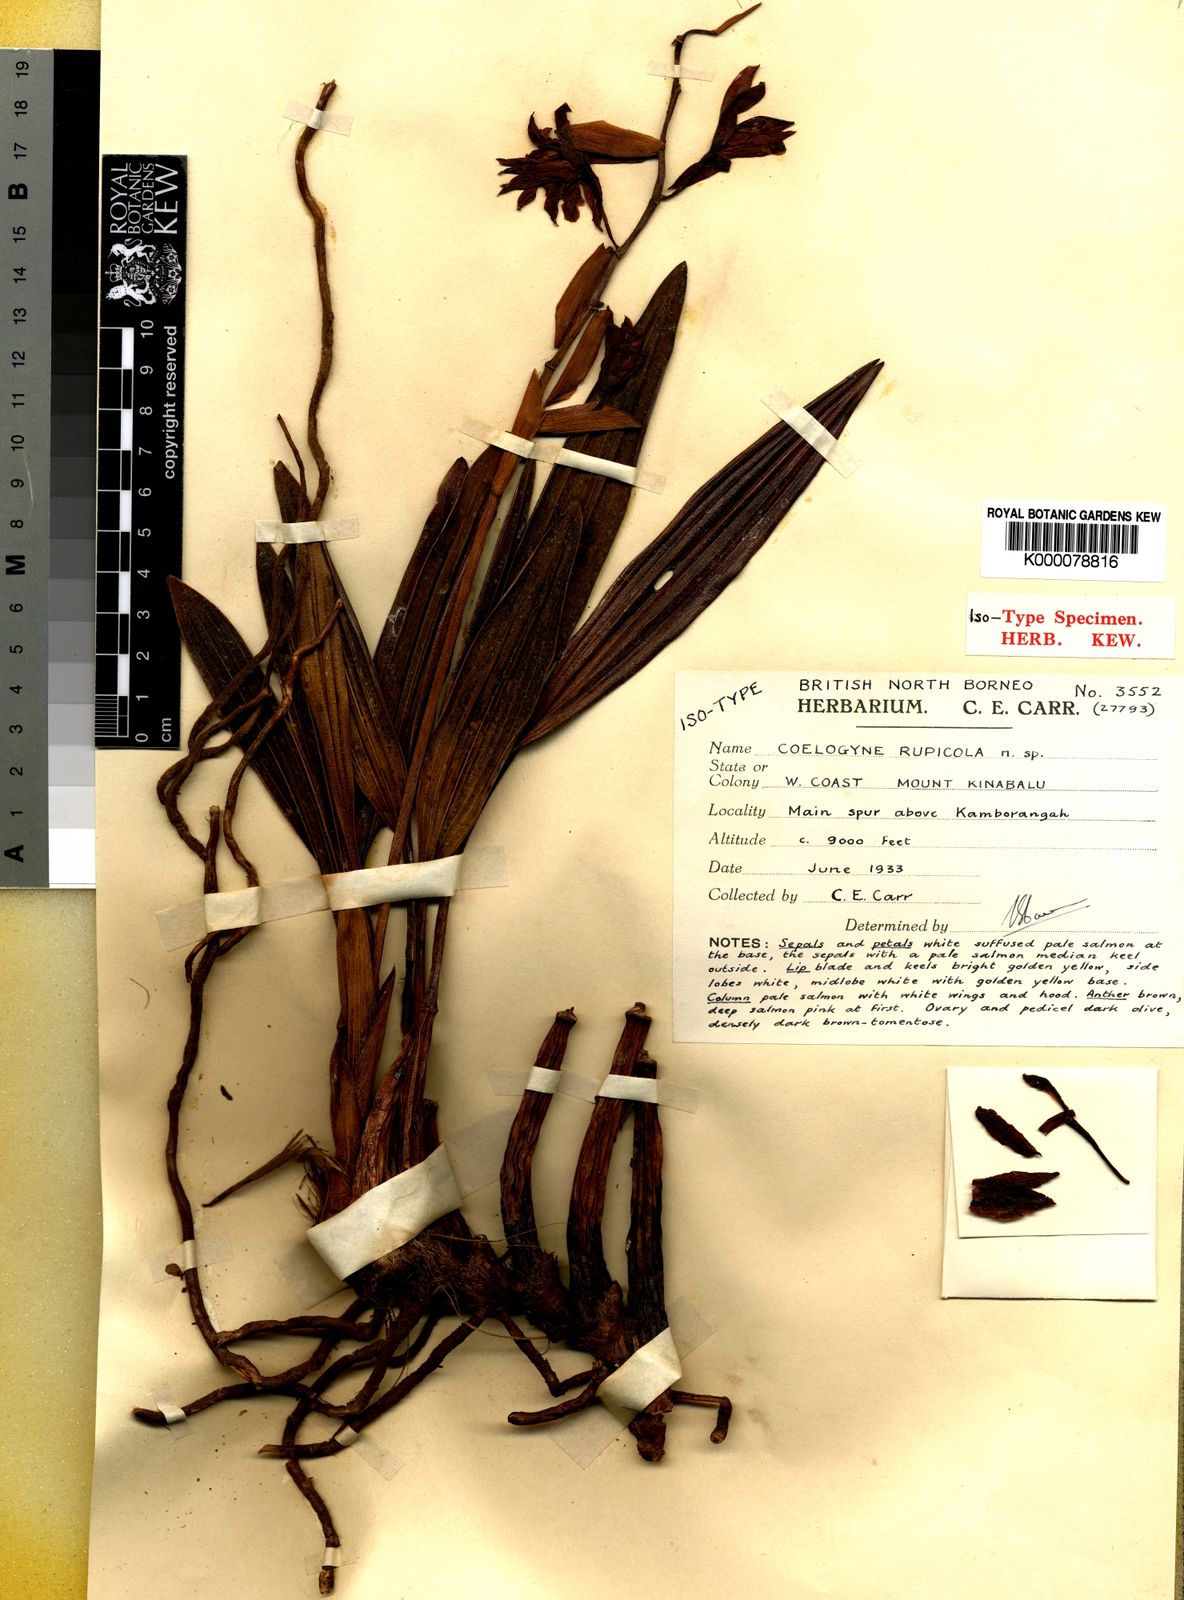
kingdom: Plantae
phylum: Tracheophyta
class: Liliopsida
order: Asparagales
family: Orchidaceae
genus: Coelogyne
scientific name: Coelogyne rupicola
